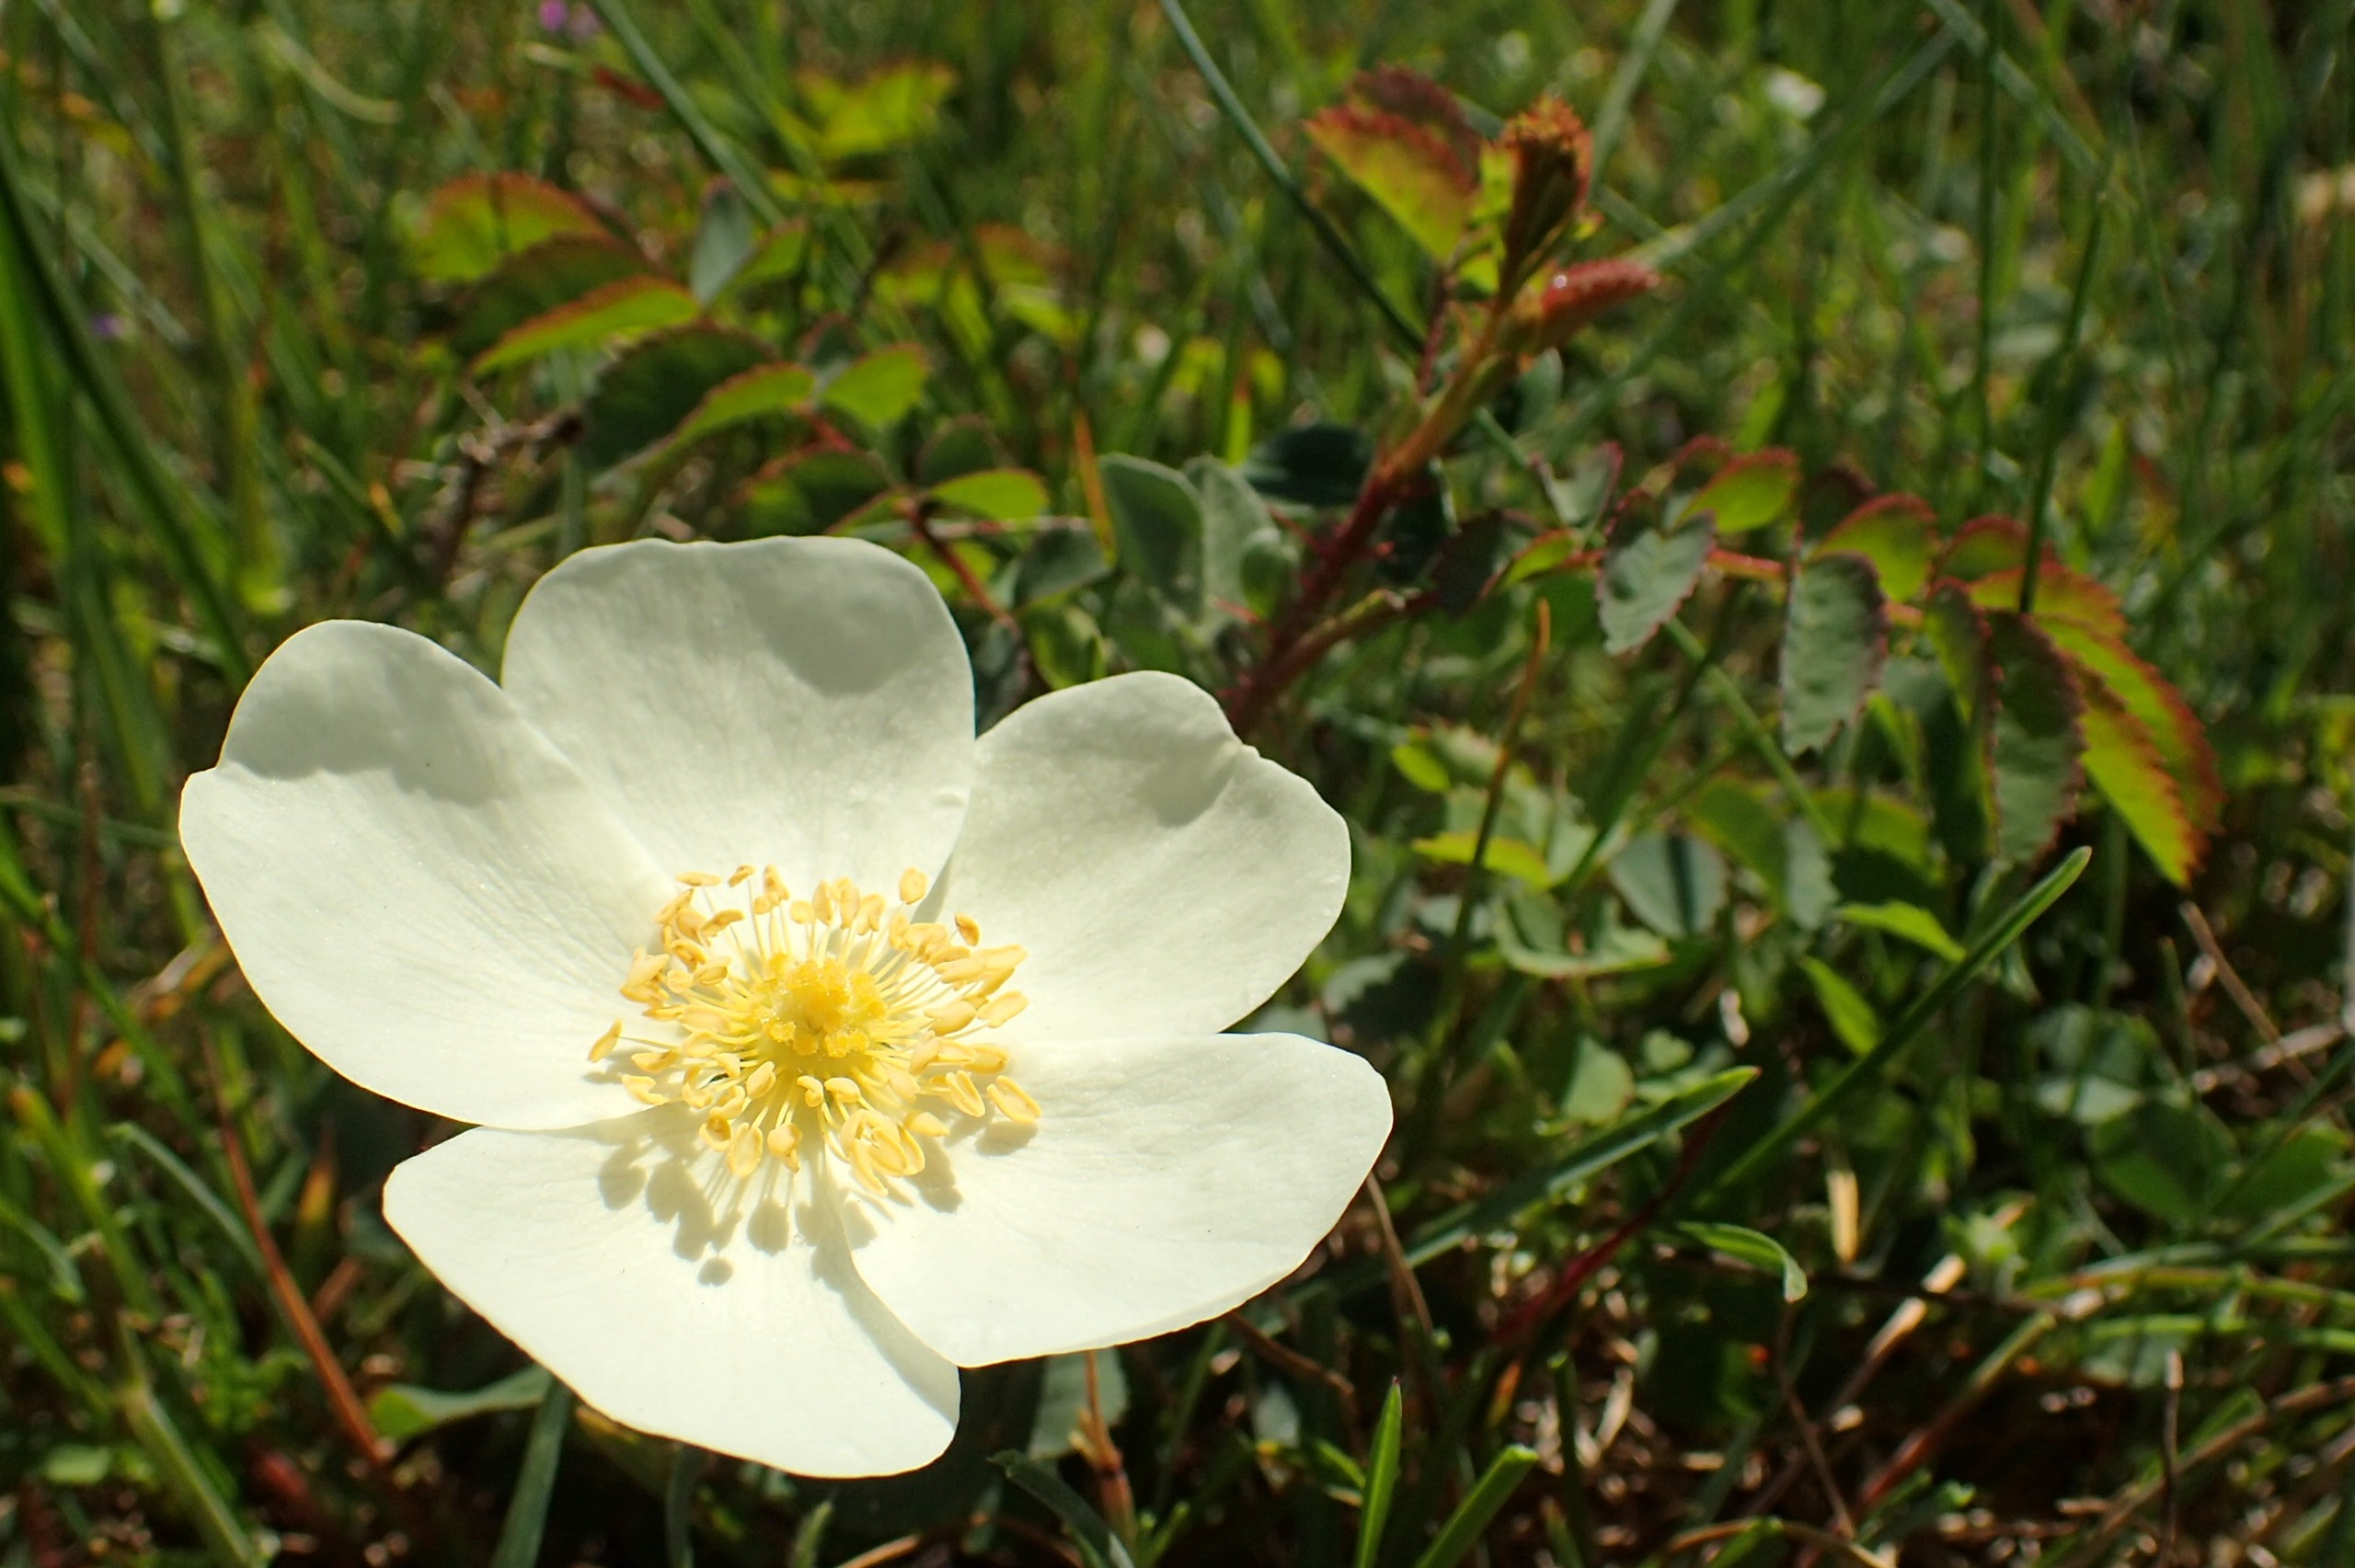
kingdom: Plantae
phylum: Tracheophyta
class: Magnoliopsida
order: Rosales
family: Rosaceae
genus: Rosa
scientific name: Rosa spinosissima
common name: Klit-rose
